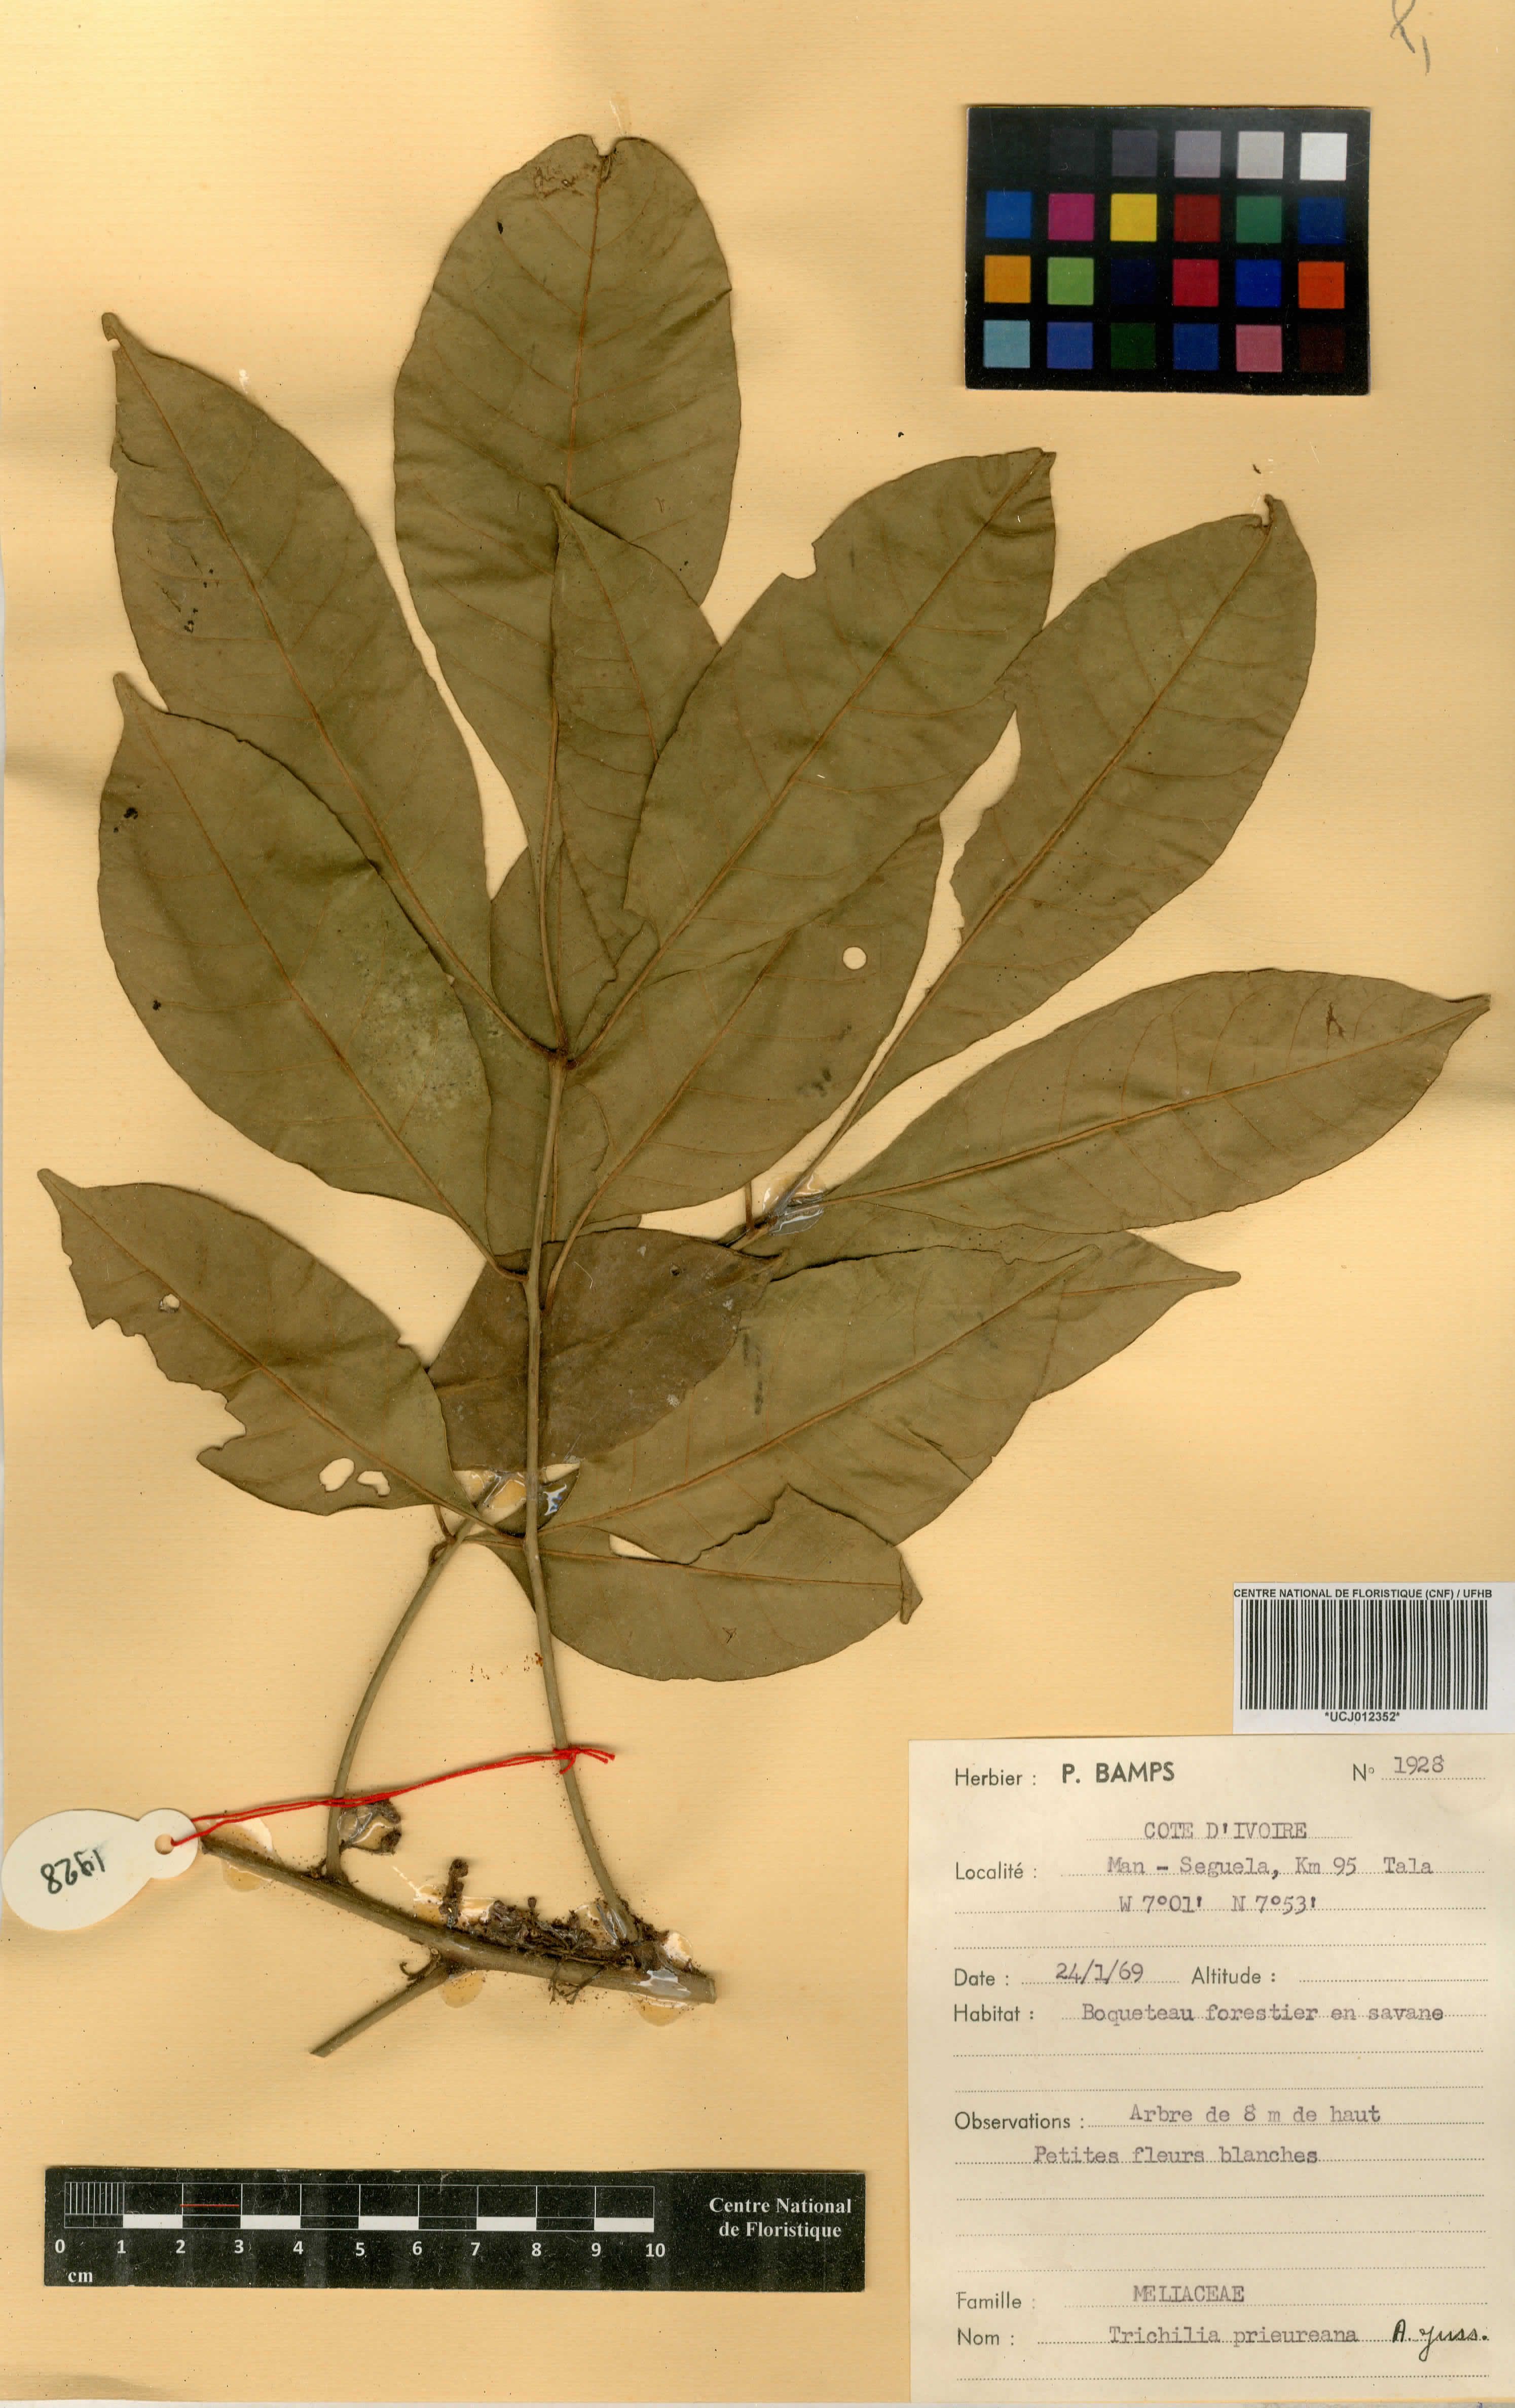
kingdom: Plantae
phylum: Tracheophyta
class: Magnoliopsida
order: Sapindales
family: Meliaceae
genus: Trichilia
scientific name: Trichilia prieureana
